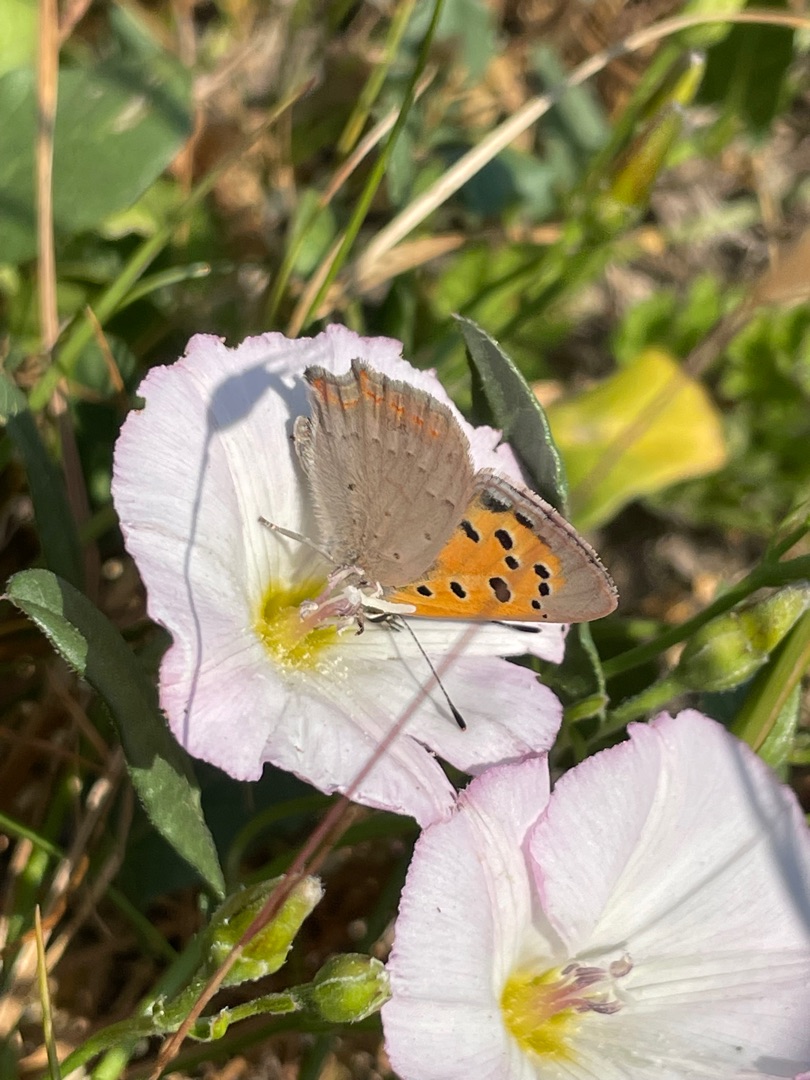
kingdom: Animalia
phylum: Arthropoda
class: Insecta
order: Lepidoptera
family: Lycaenidae
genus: Lycaena
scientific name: Lycaena phlaeas
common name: Lille ildfugl
